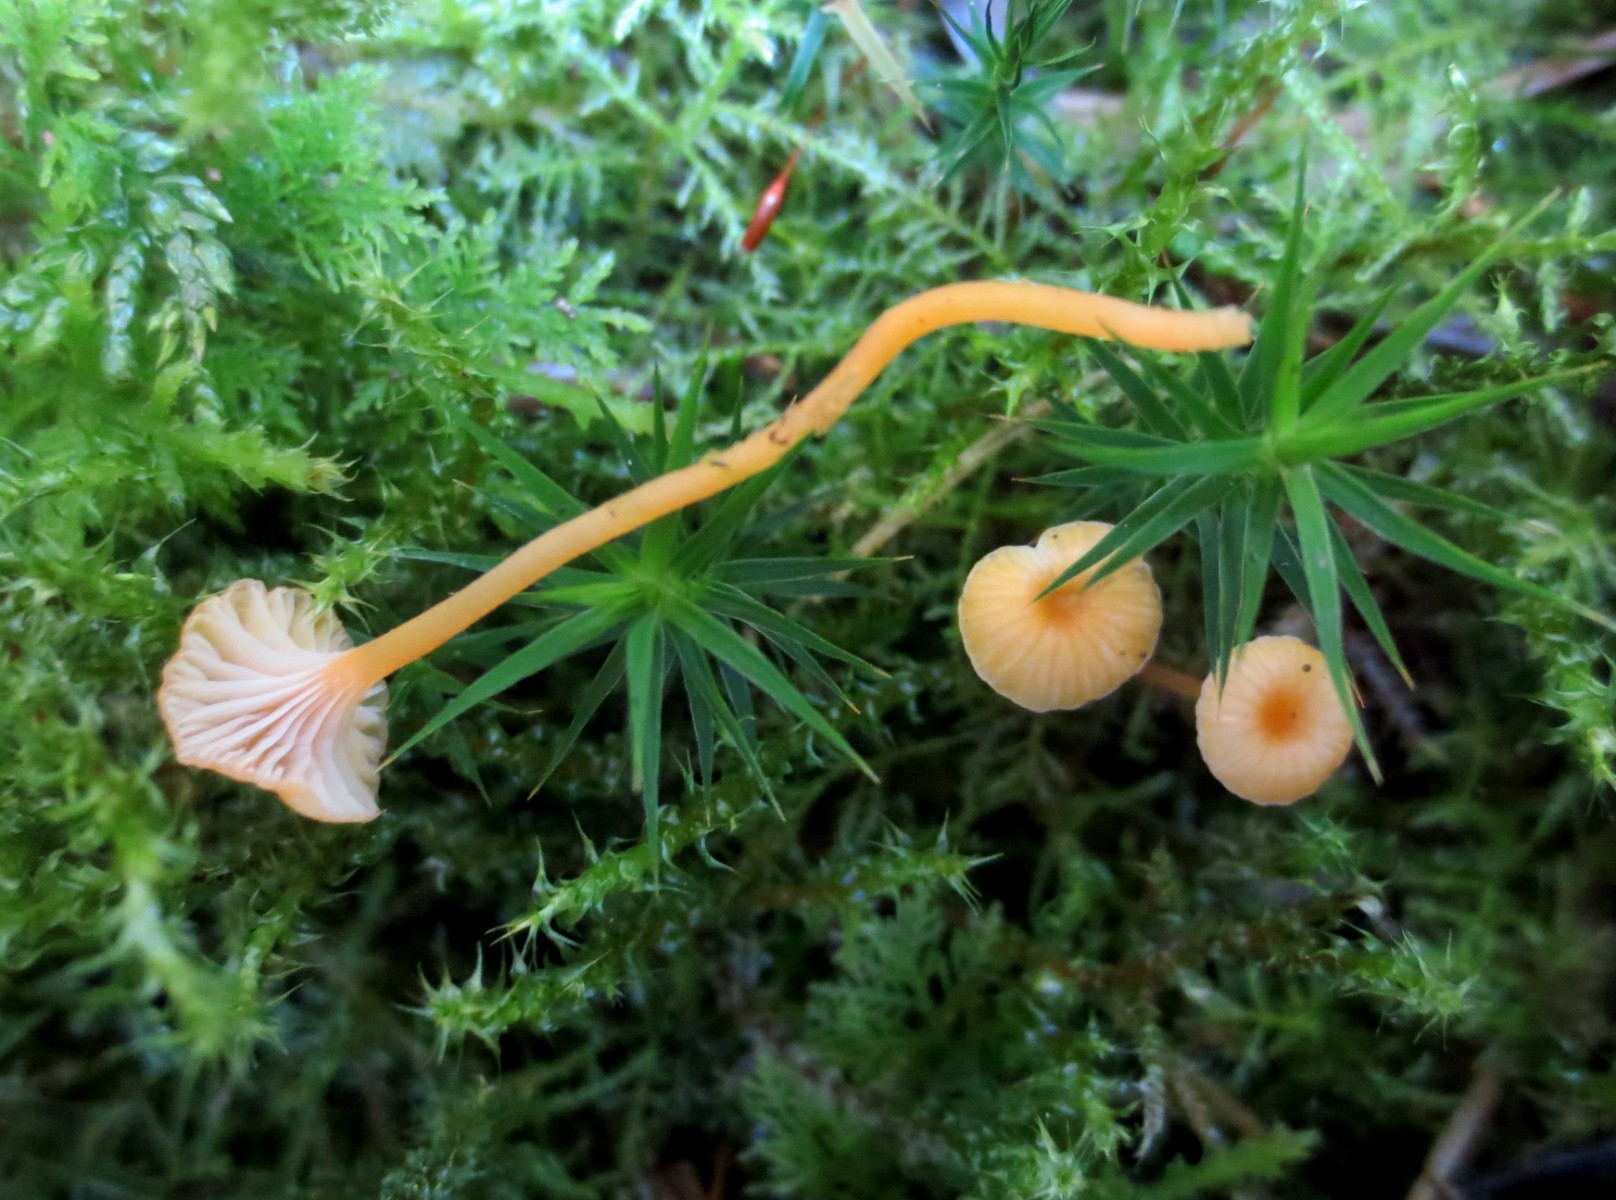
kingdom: Fungi
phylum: Basidiomycota
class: Agaricomycetes
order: Hymenochaetales
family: Rickenellaceae
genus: Rickenella
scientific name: Rickenella fibula
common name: orange mosnavlehat
